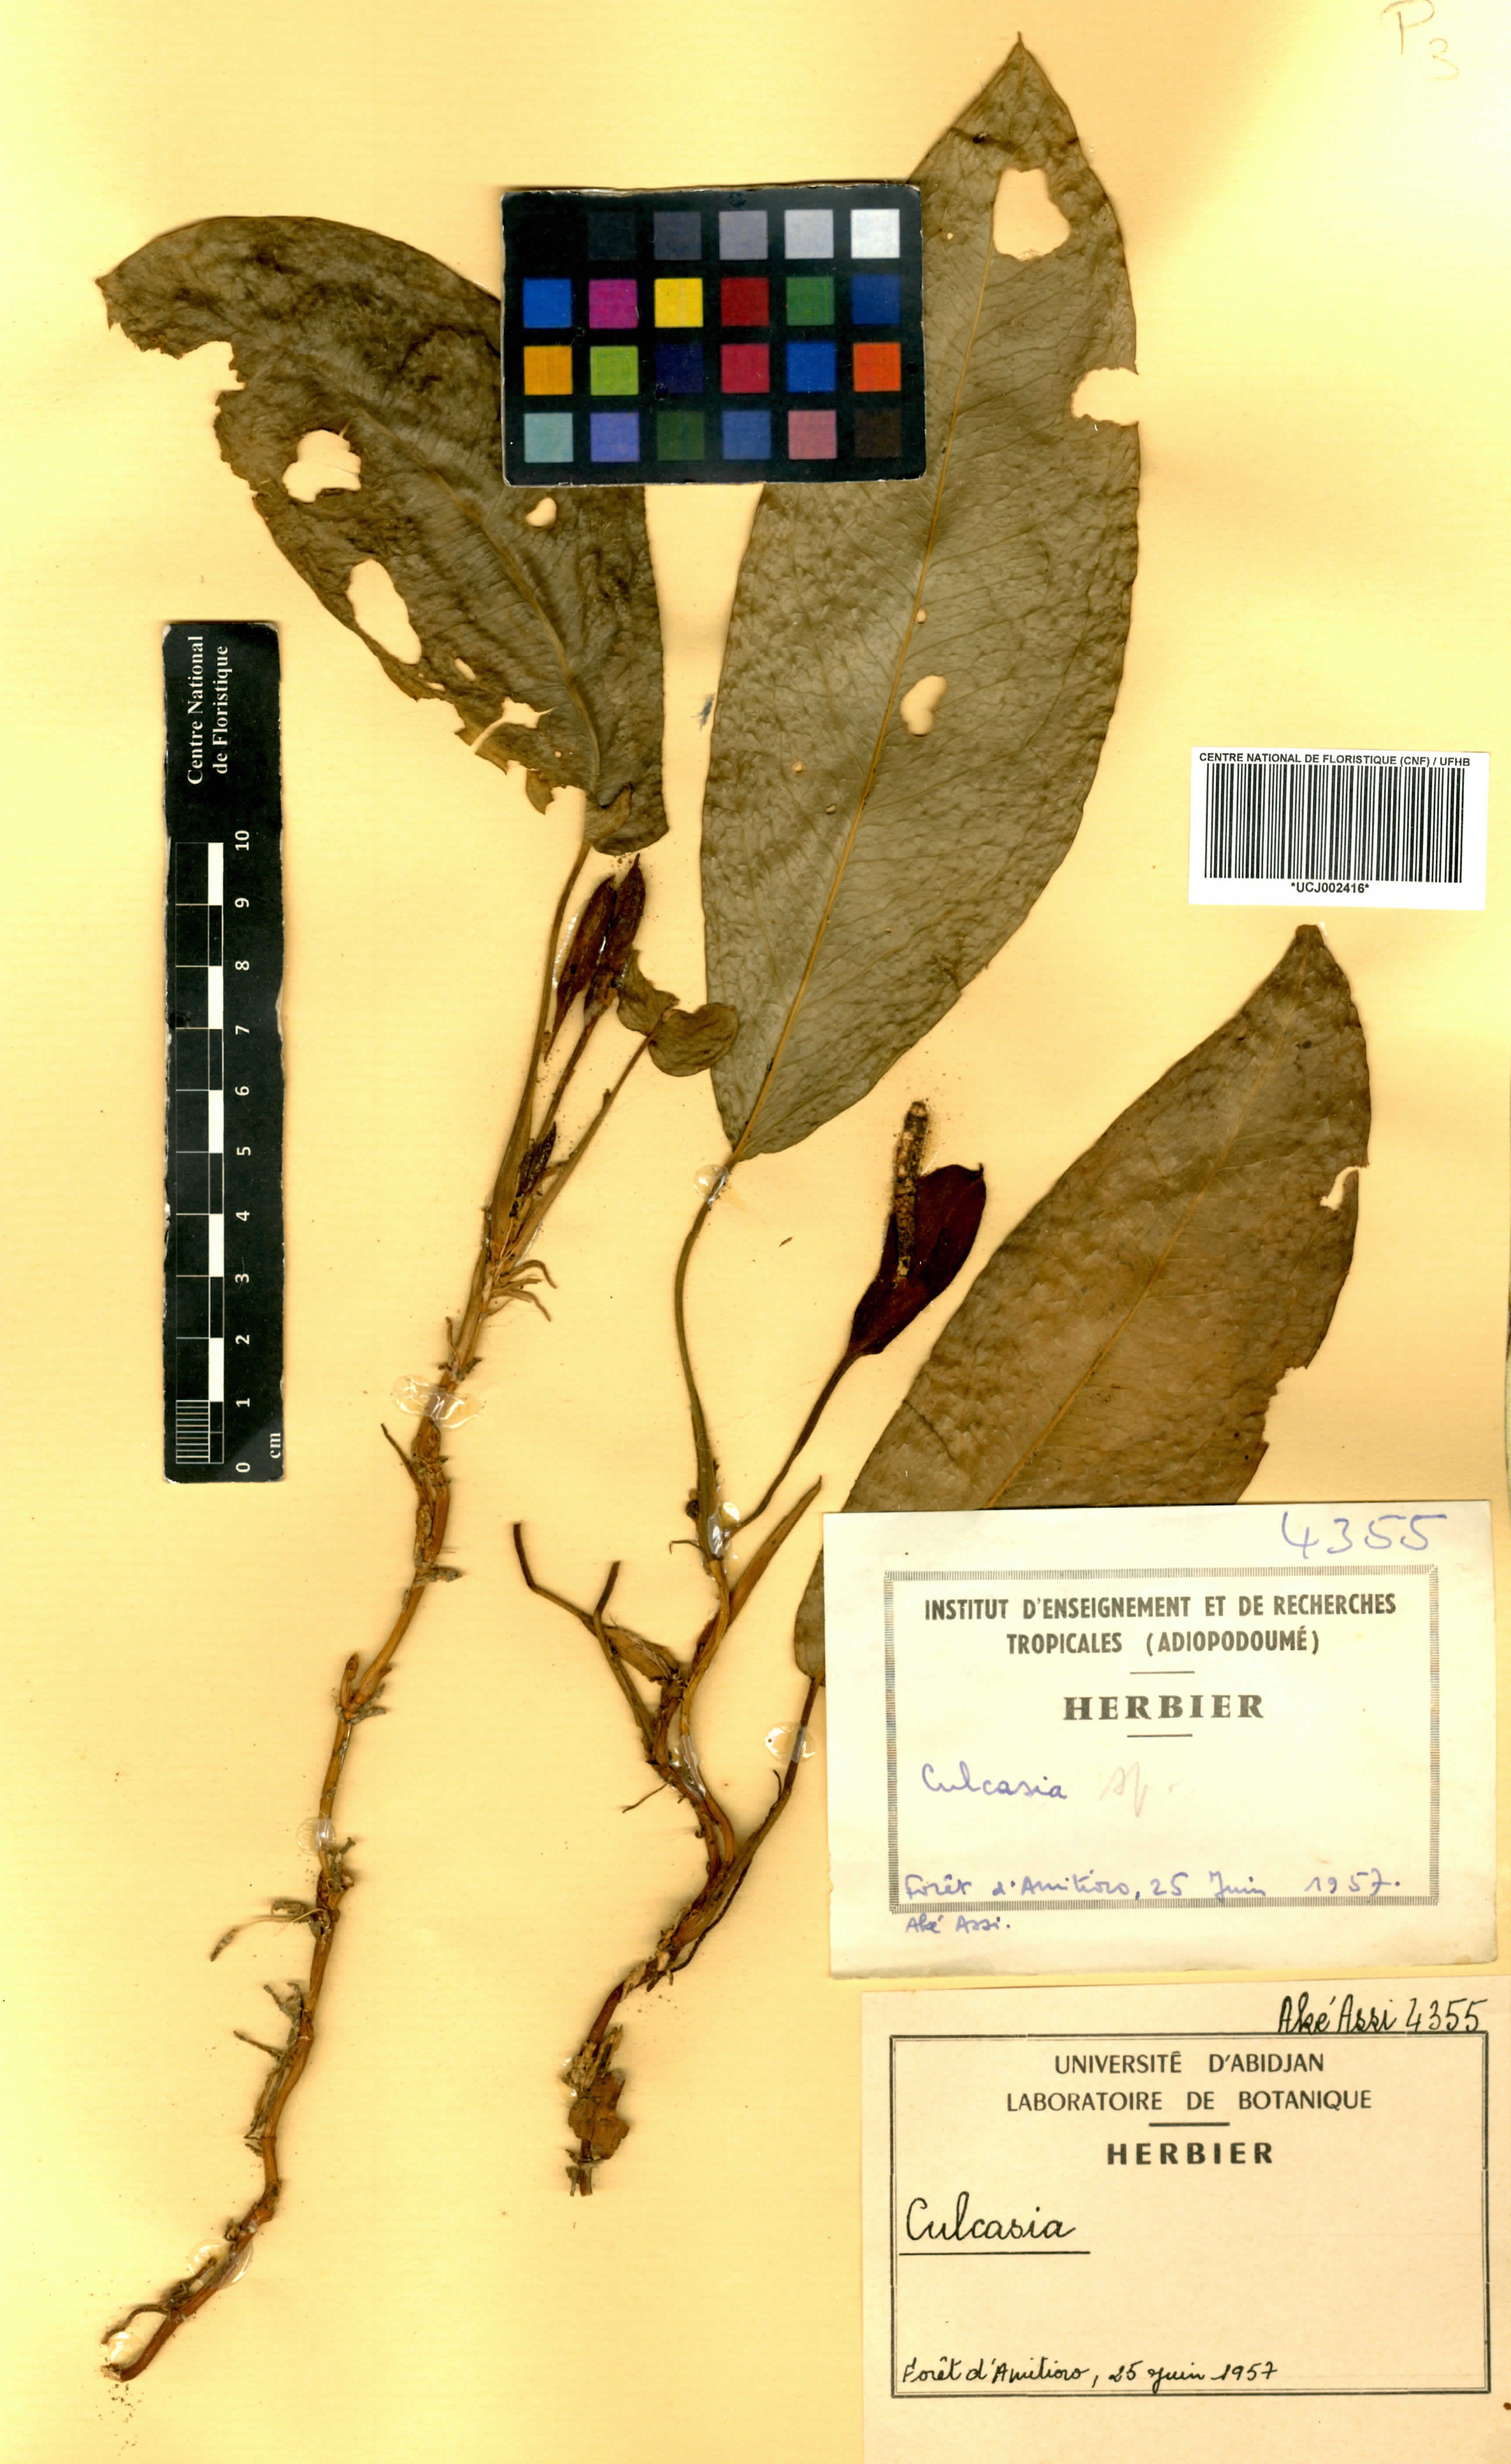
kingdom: Plantae
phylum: Tracheophyta
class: Liliopsida
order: Alismatales
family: Araceae
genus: Culcasia
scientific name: Culcasia
